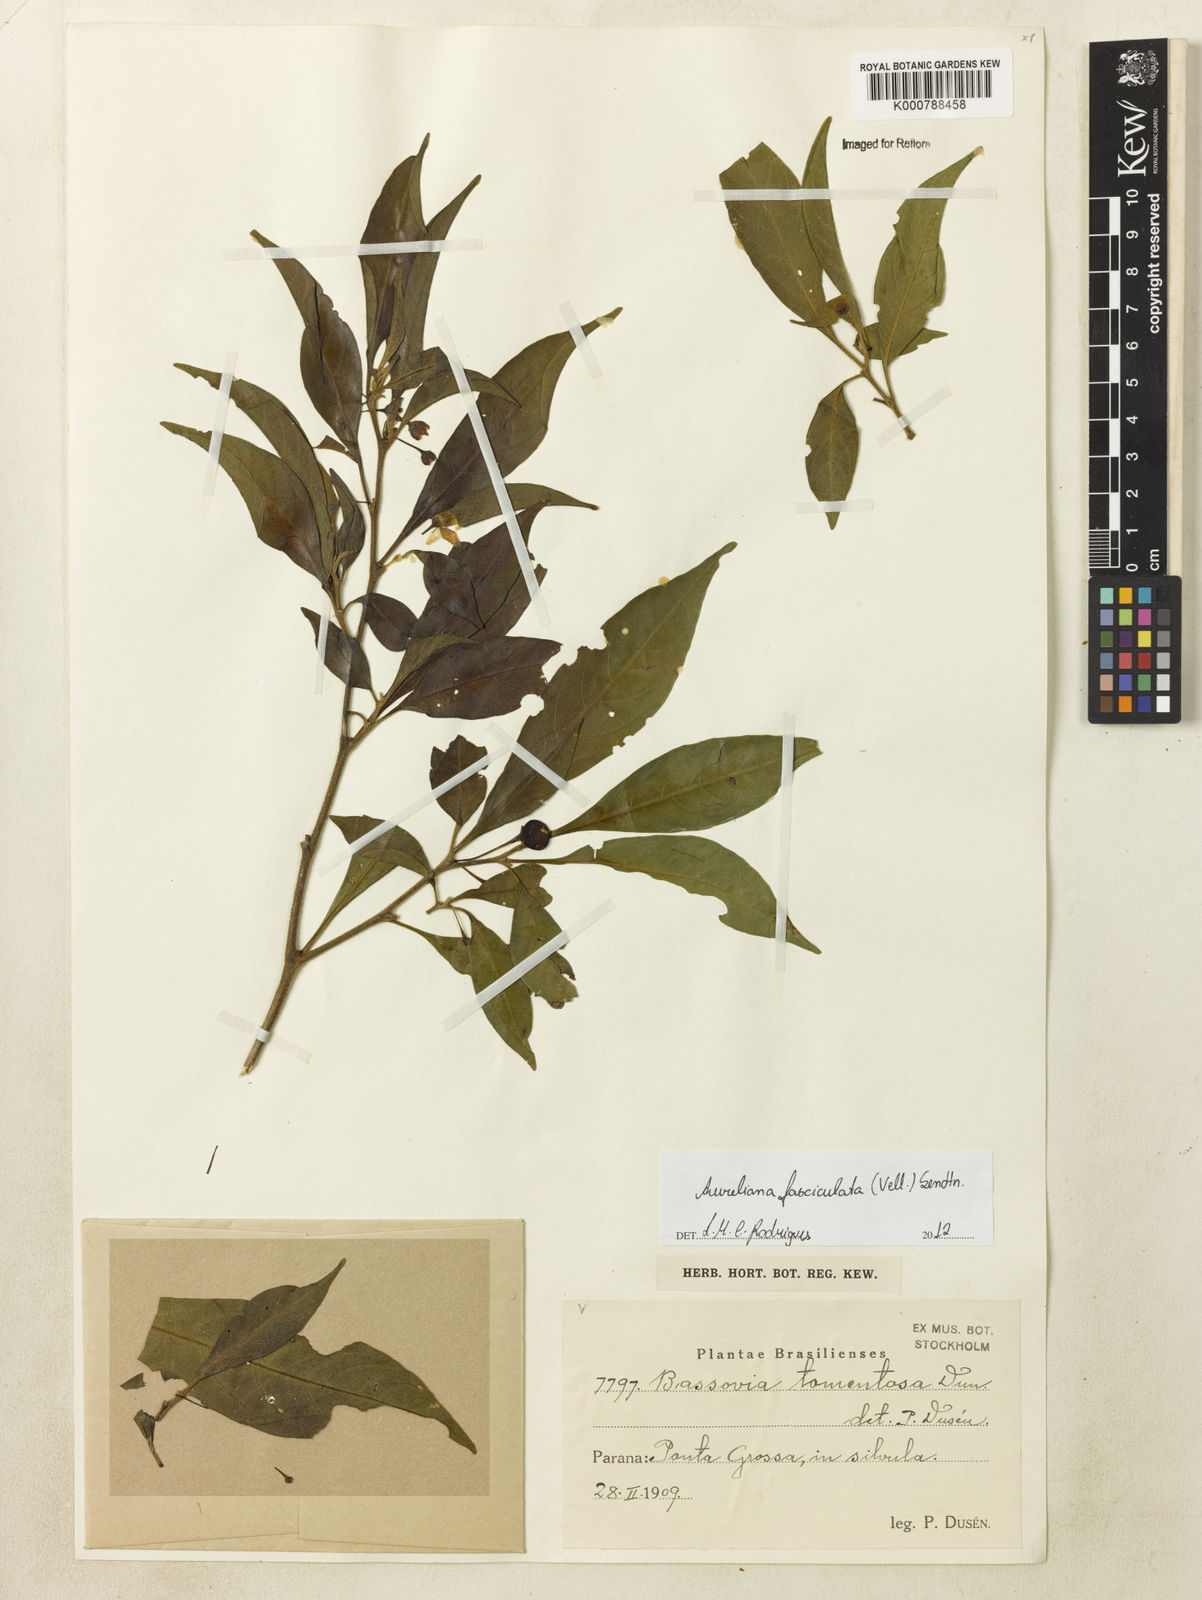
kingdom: Plantae
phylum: Tracheophyta
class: Magnoliopsida
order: Solanales
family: Solanaceae
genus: Athenaea
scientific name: Athenaea fasciculata
